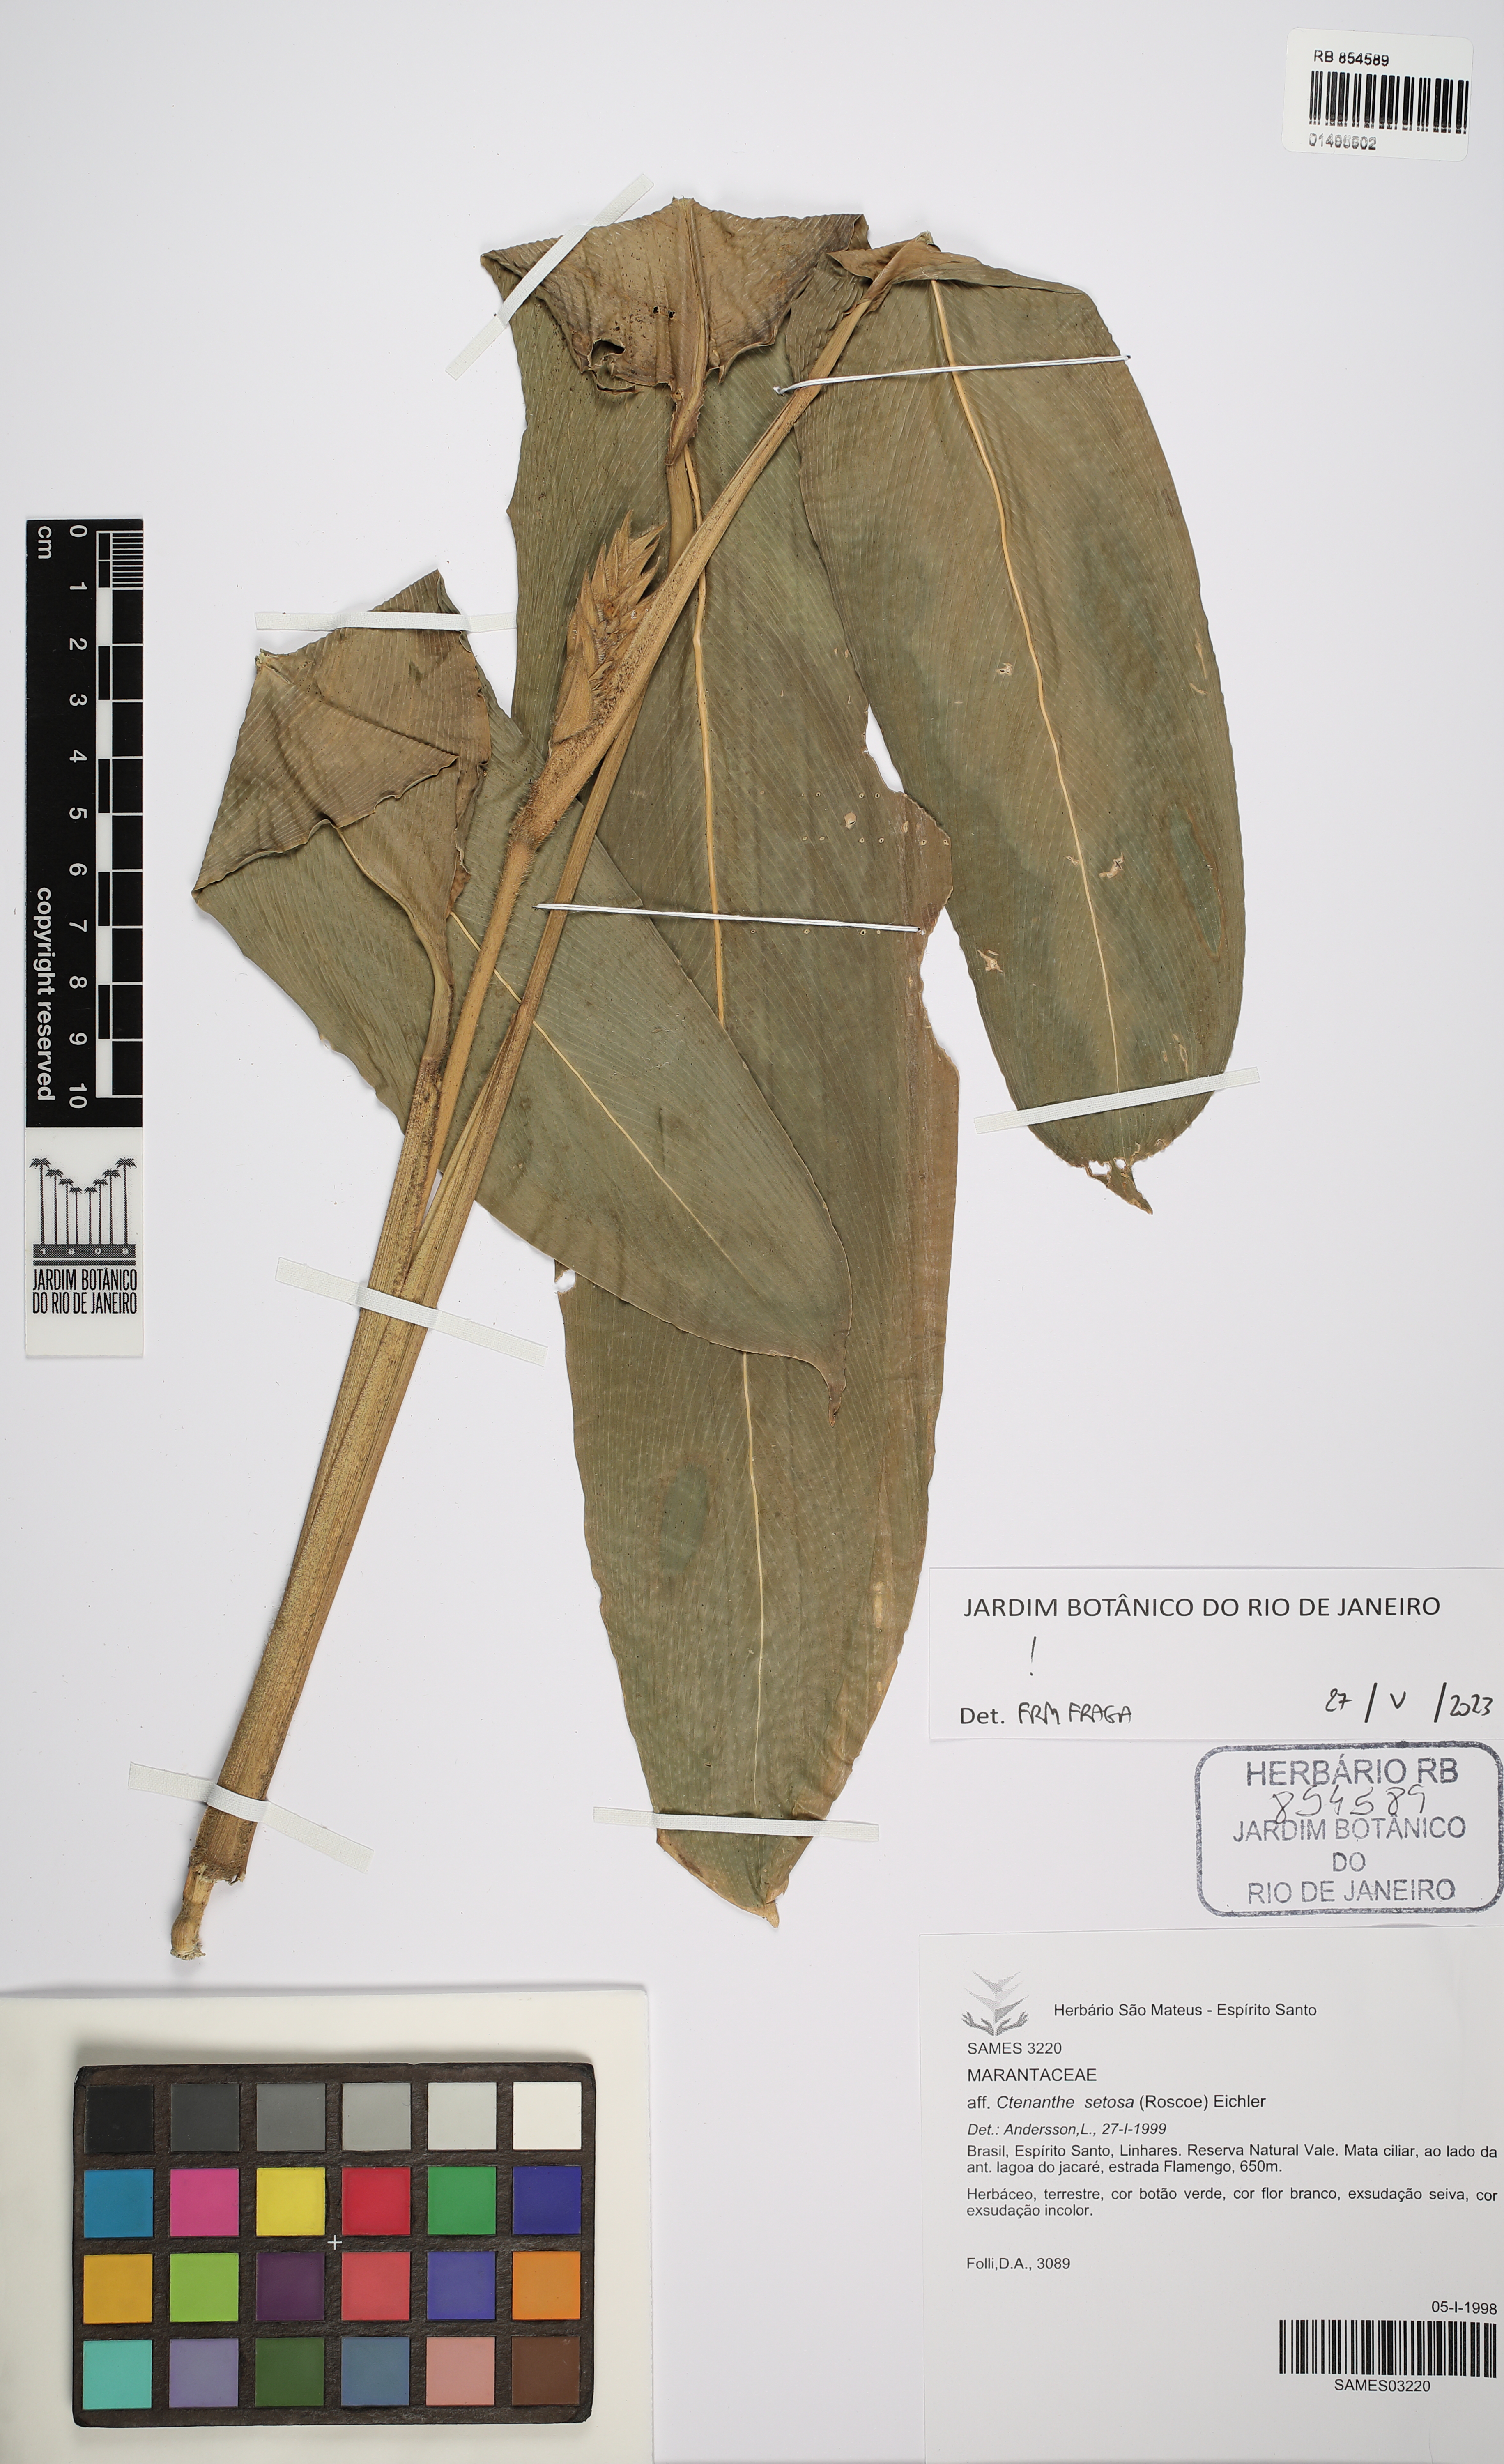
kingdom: Plantae
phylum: Tracheophyta
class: Liliopsida
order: Zingiberales
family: Marantaceae
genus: Ctenanthe
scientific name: Ctenanthe setosa
